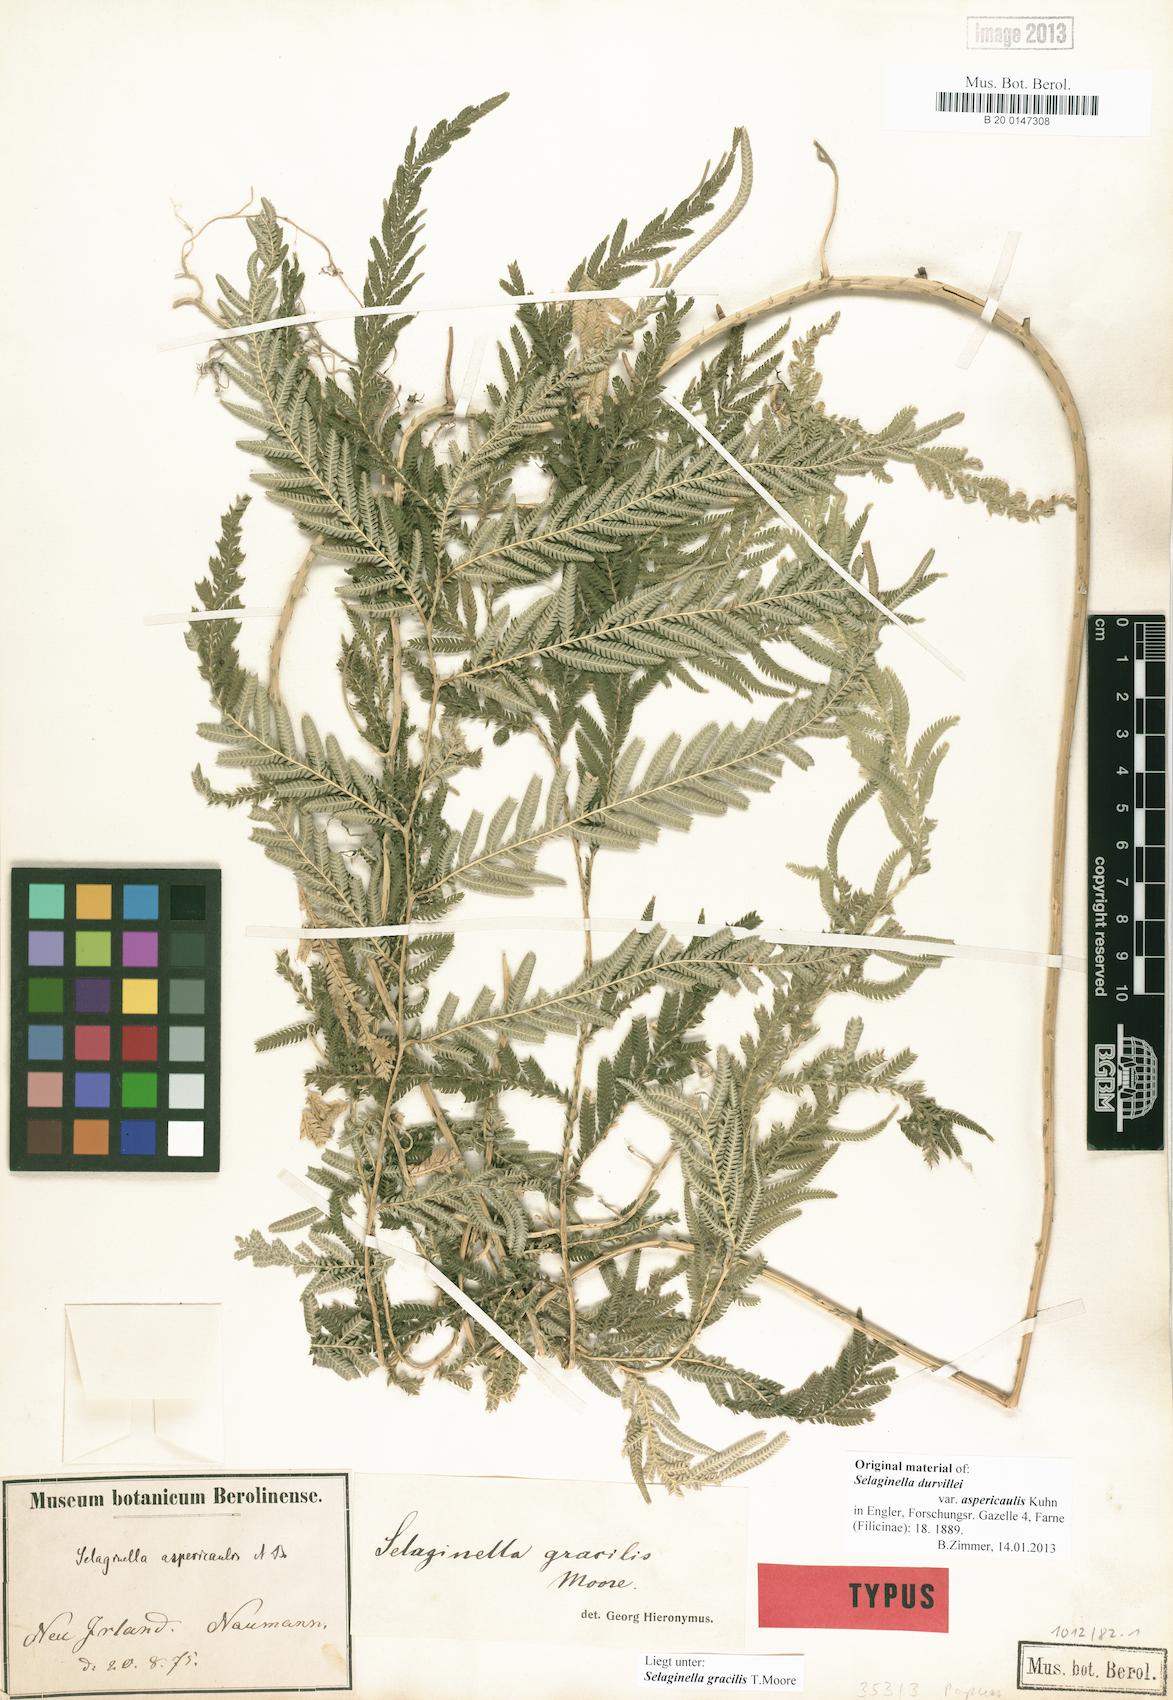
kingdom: Plantae
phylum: Tracheophyta
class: Lycopodiopsida
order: Selaginellales
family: Selaginellaceae
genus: Selaginella
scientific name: Selaginella gracilis
